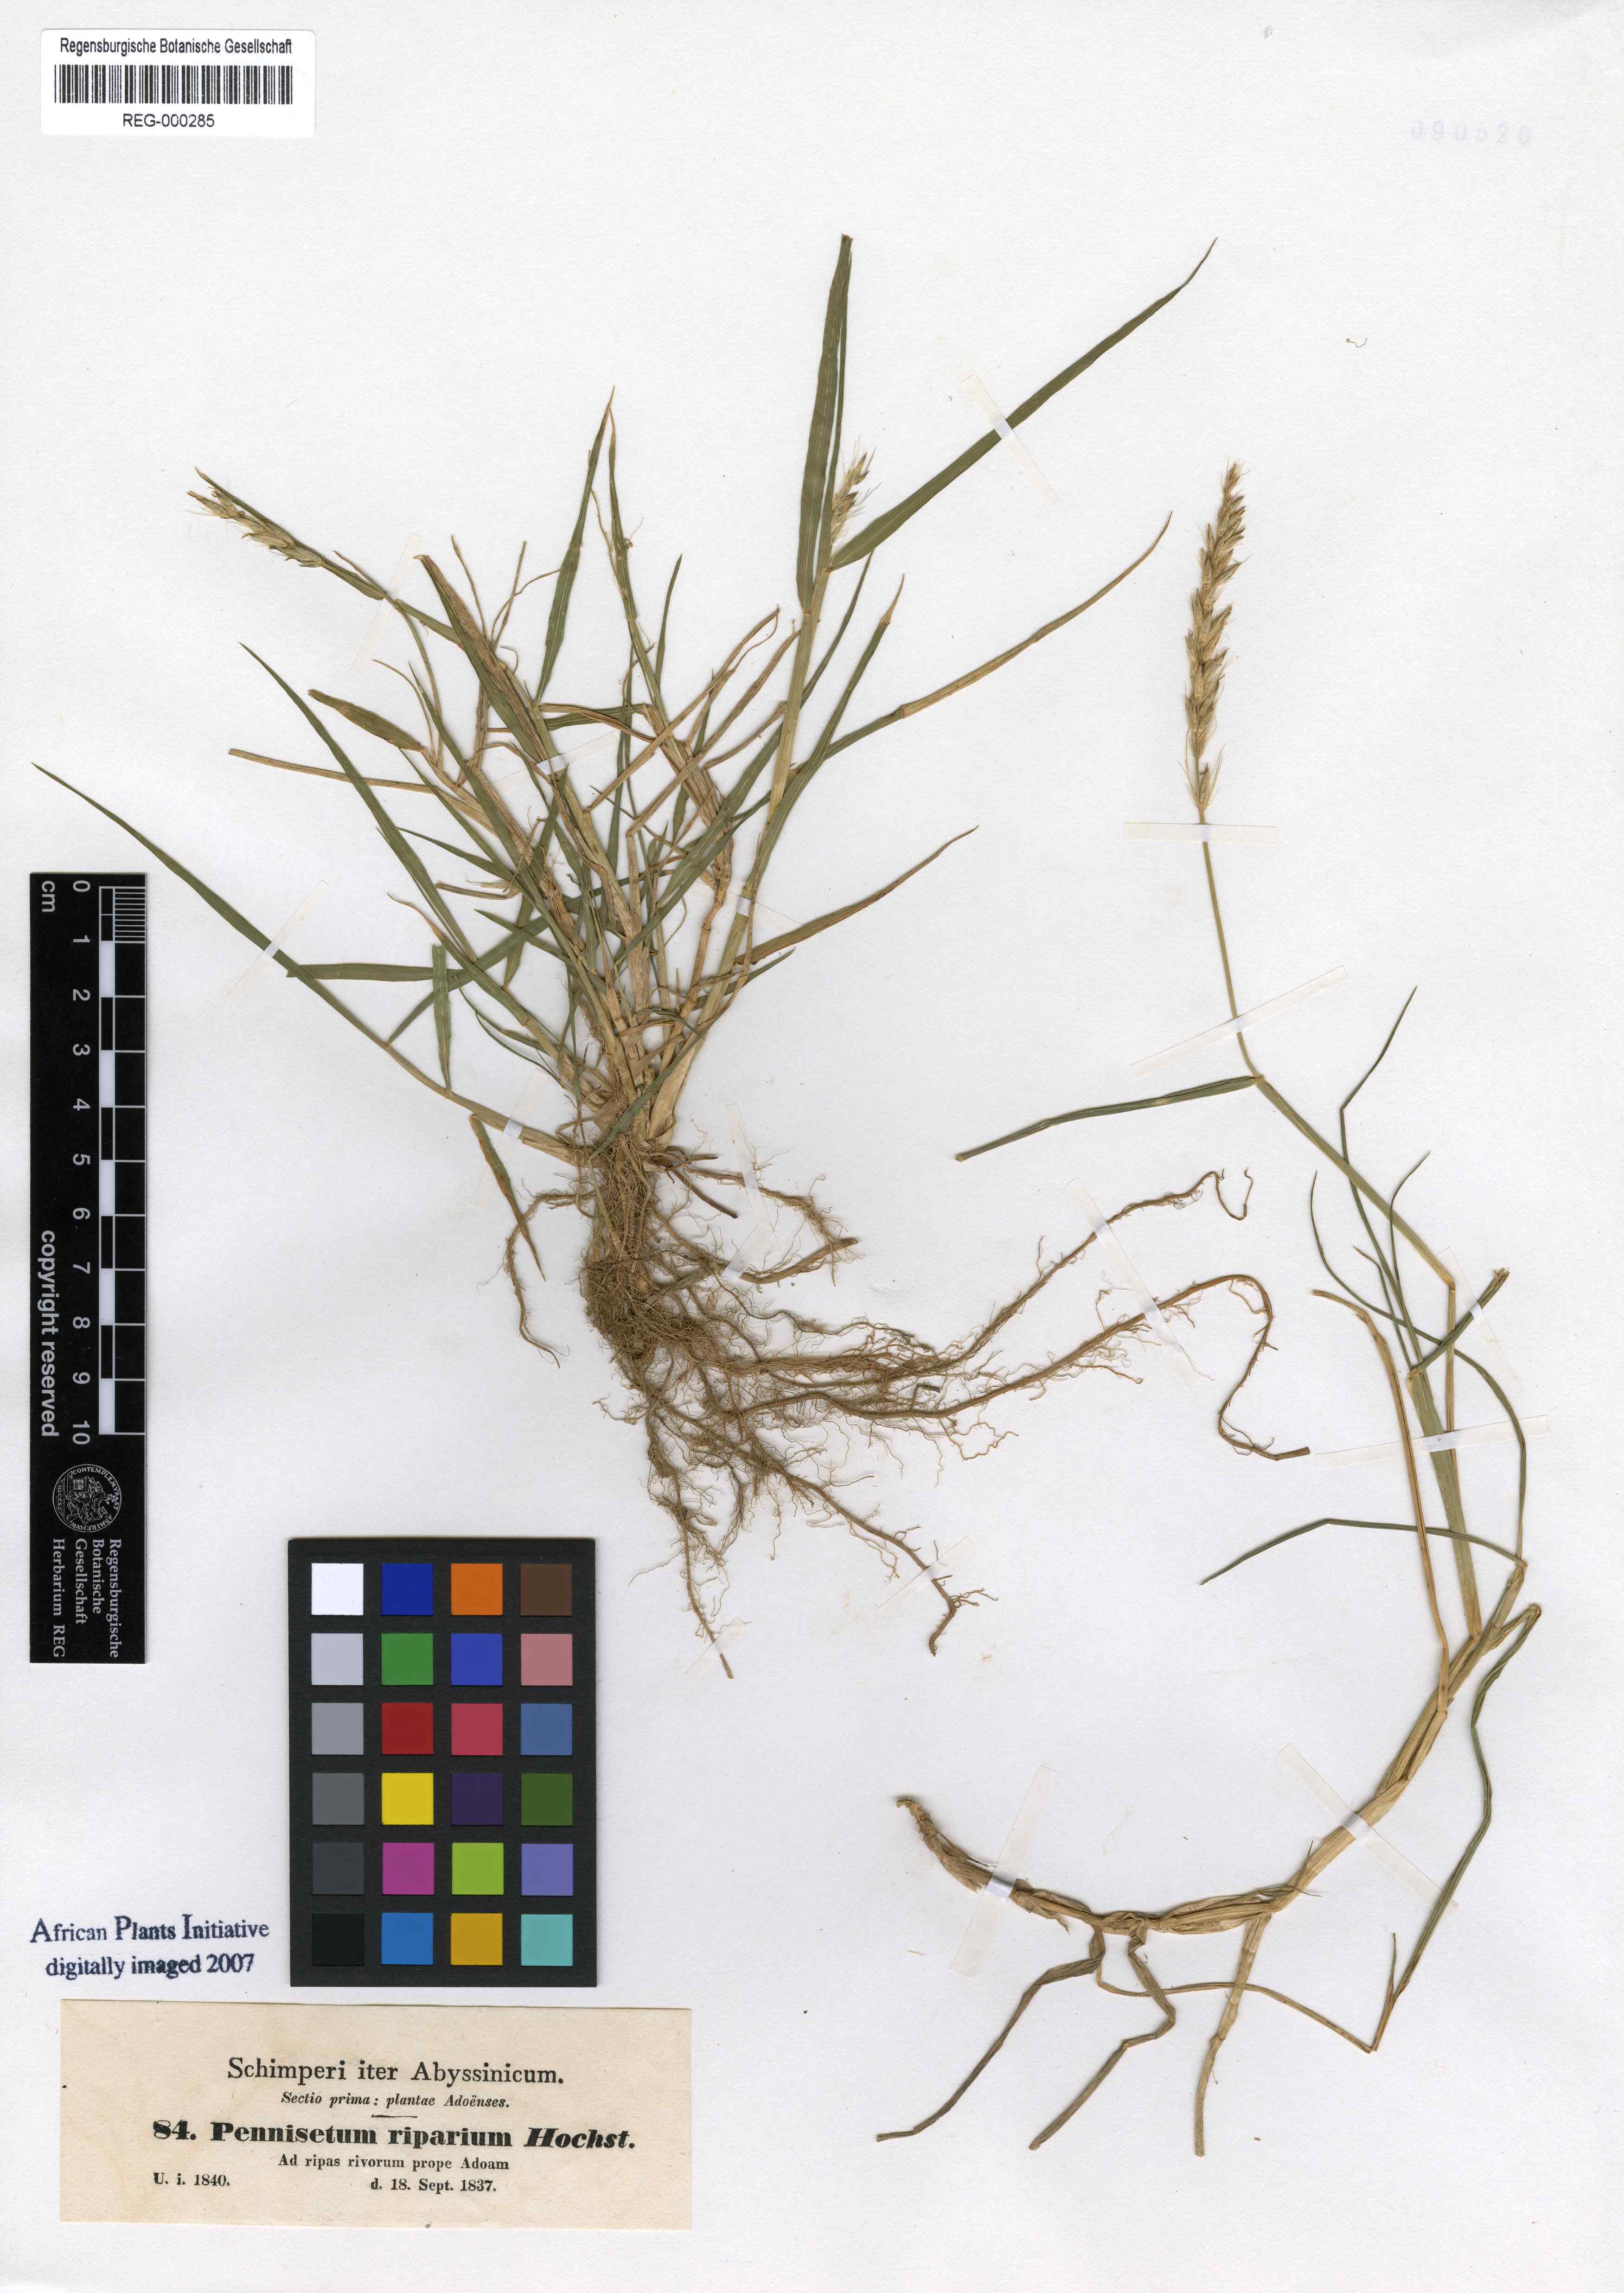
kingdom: Plantae
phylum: Tracheophyta
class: Liliopsida
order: Poales
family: Poaceae
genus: Cenchrus
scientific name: Cenchrus riparius
